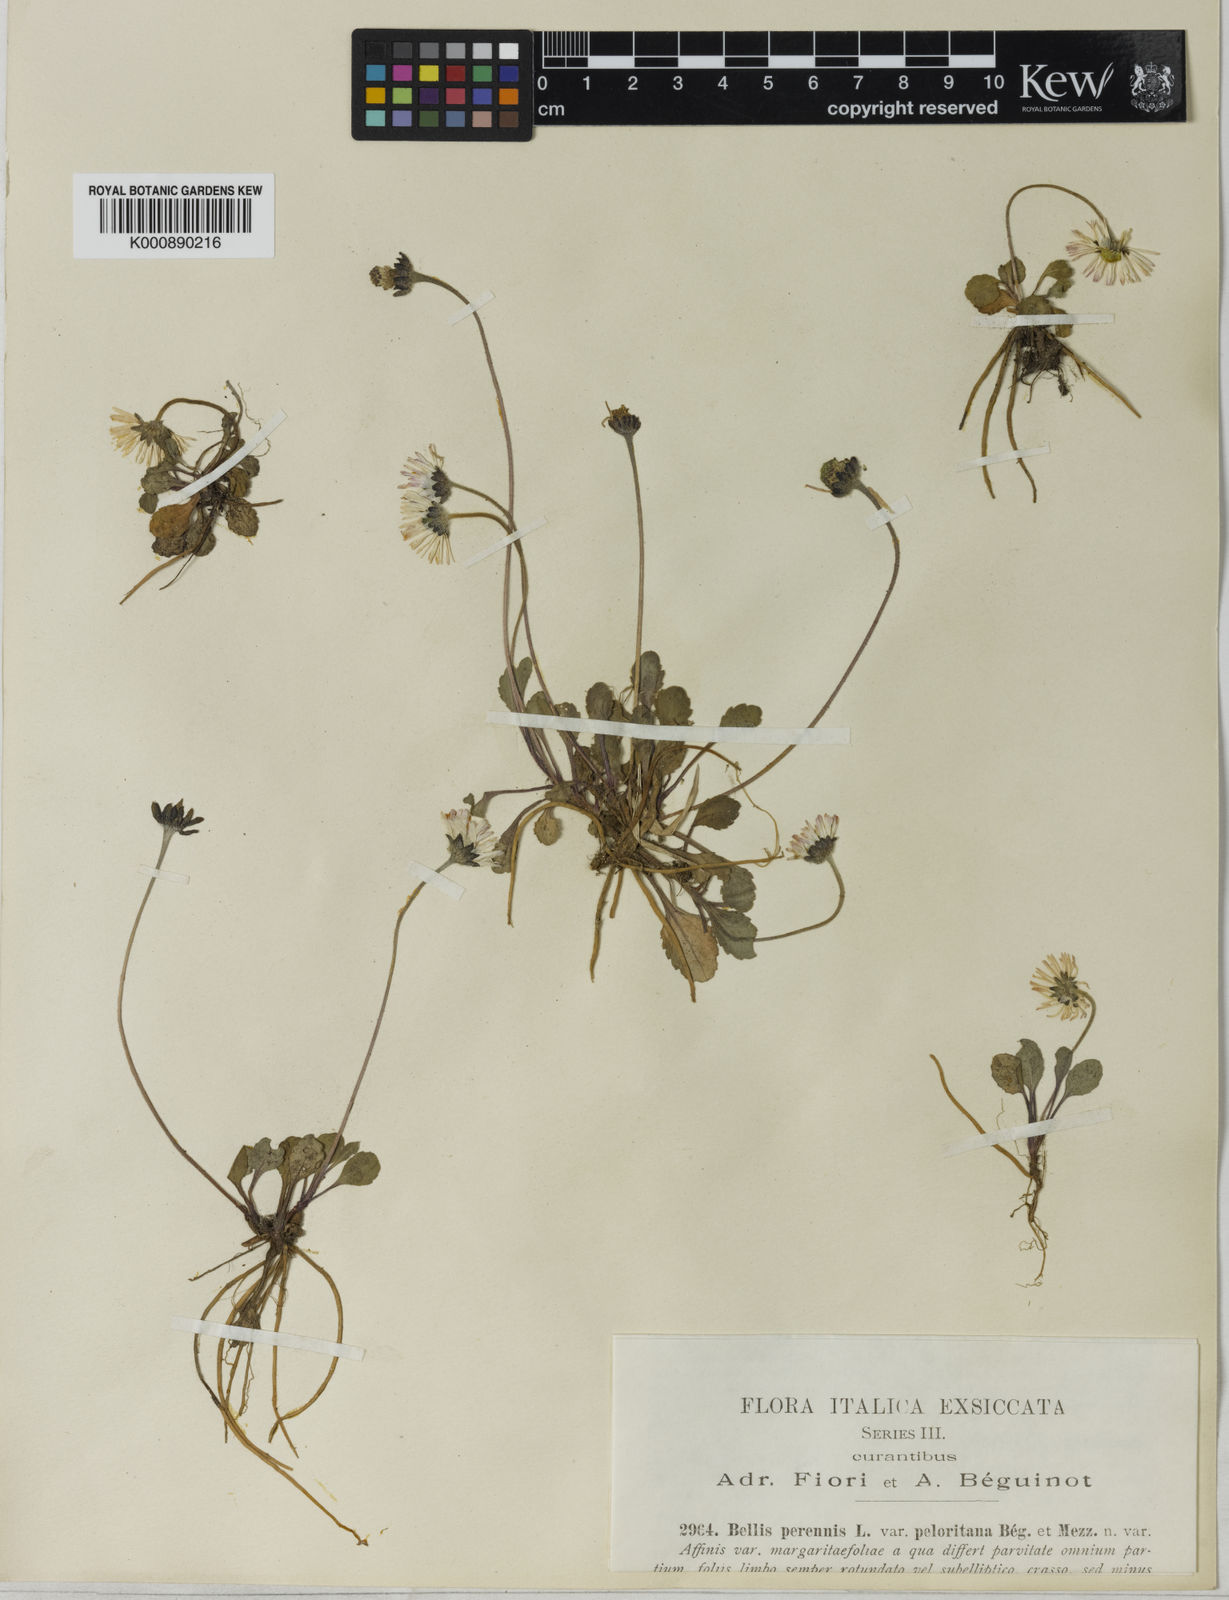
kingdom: Plantae
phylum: Tracheophyta
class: Magnoliopsida
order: Asterales
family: Asteraceae
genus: Bellis
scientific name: Bellis perennis
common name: Lawndaisy
